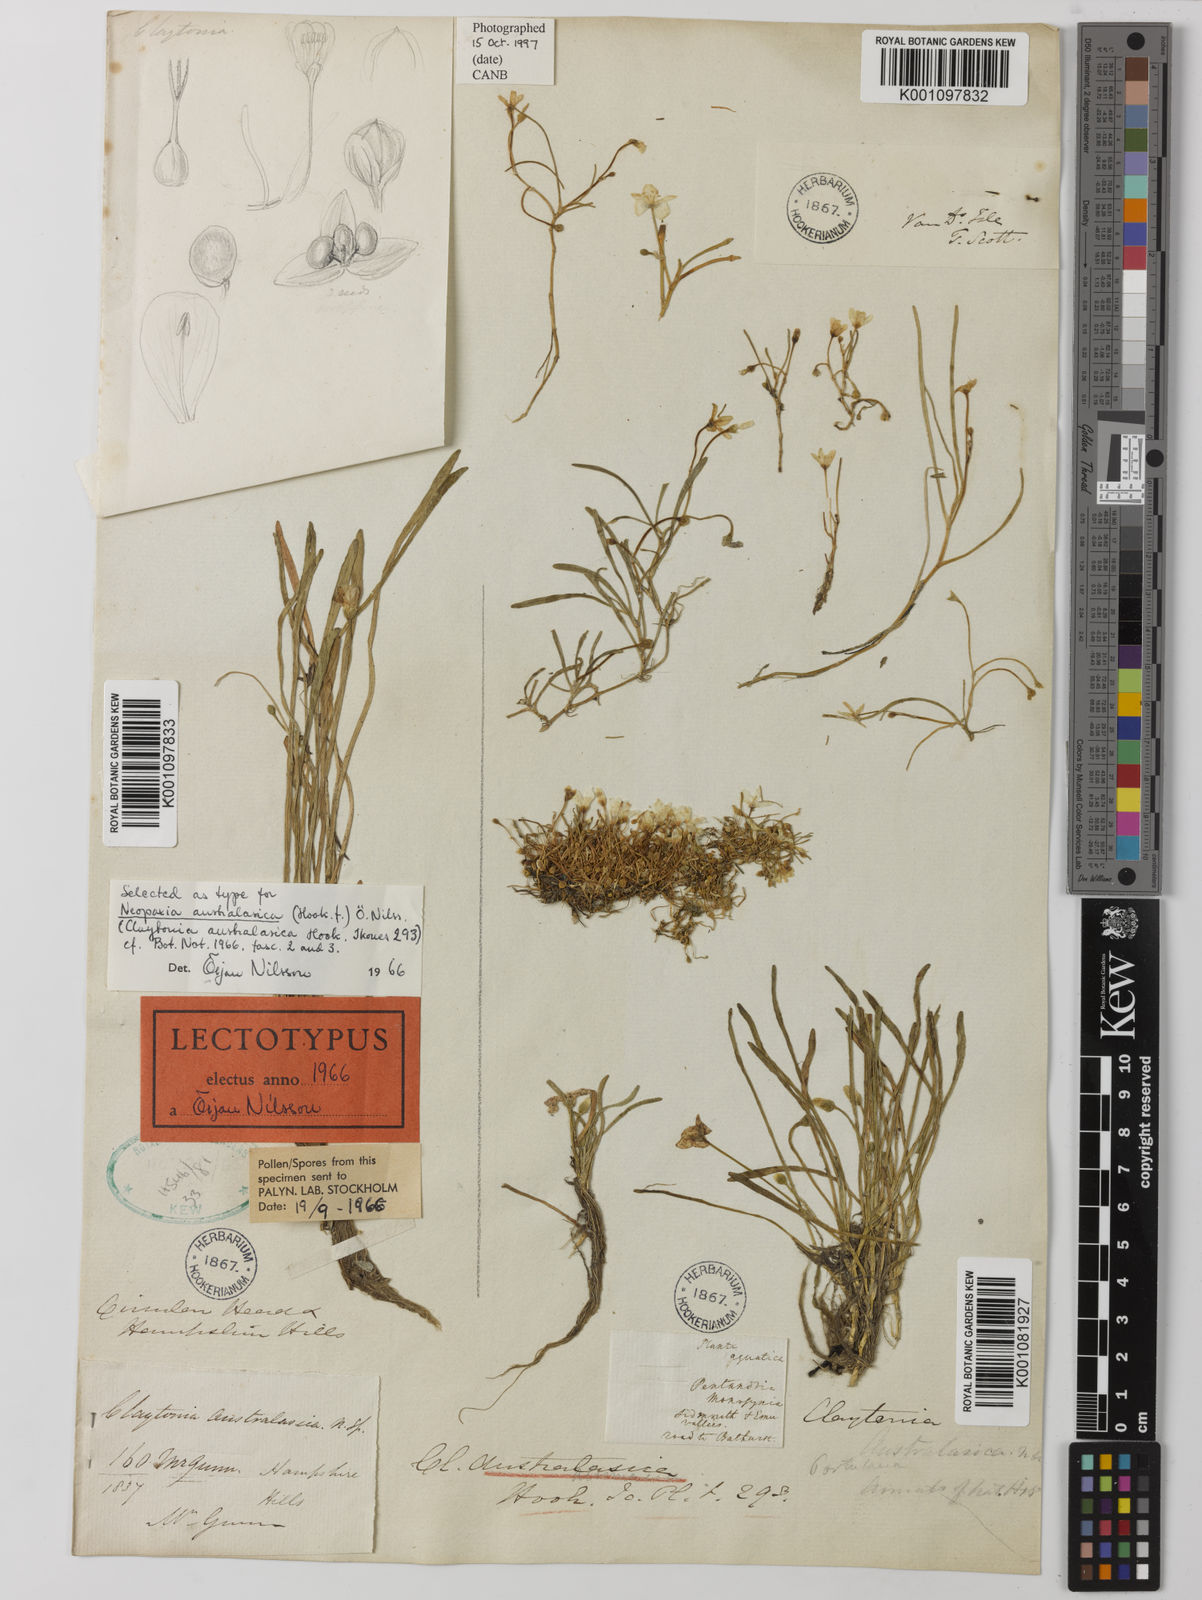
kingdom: Plantae
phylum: Tracheophyta
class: Magnoliopsida
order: Caryophyllales
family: Montiaceae
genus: Rumicastrum
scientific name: Rumicastrum corrigioloides
